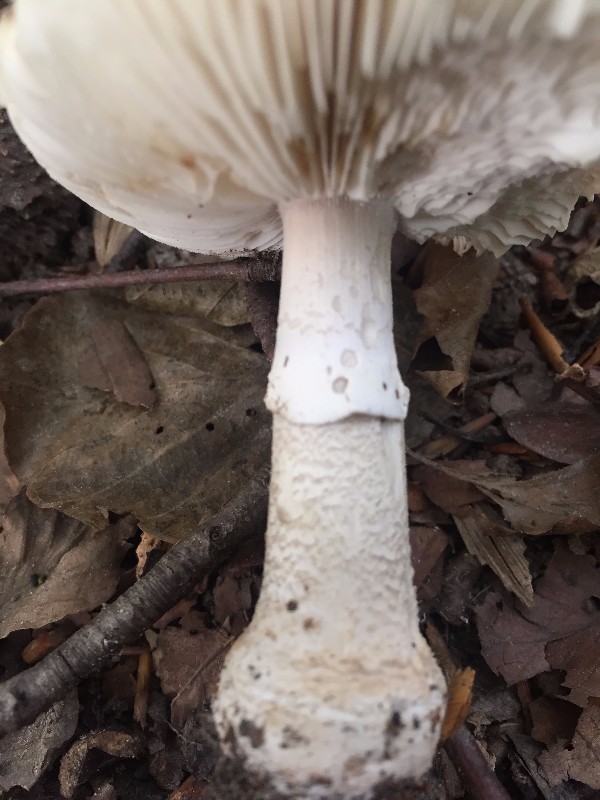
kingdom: Fungi
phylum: Basidiomycota
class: Agaricomycetes
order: Agaricales
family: Amanitaceae
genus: Amanita
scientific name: Amanita
